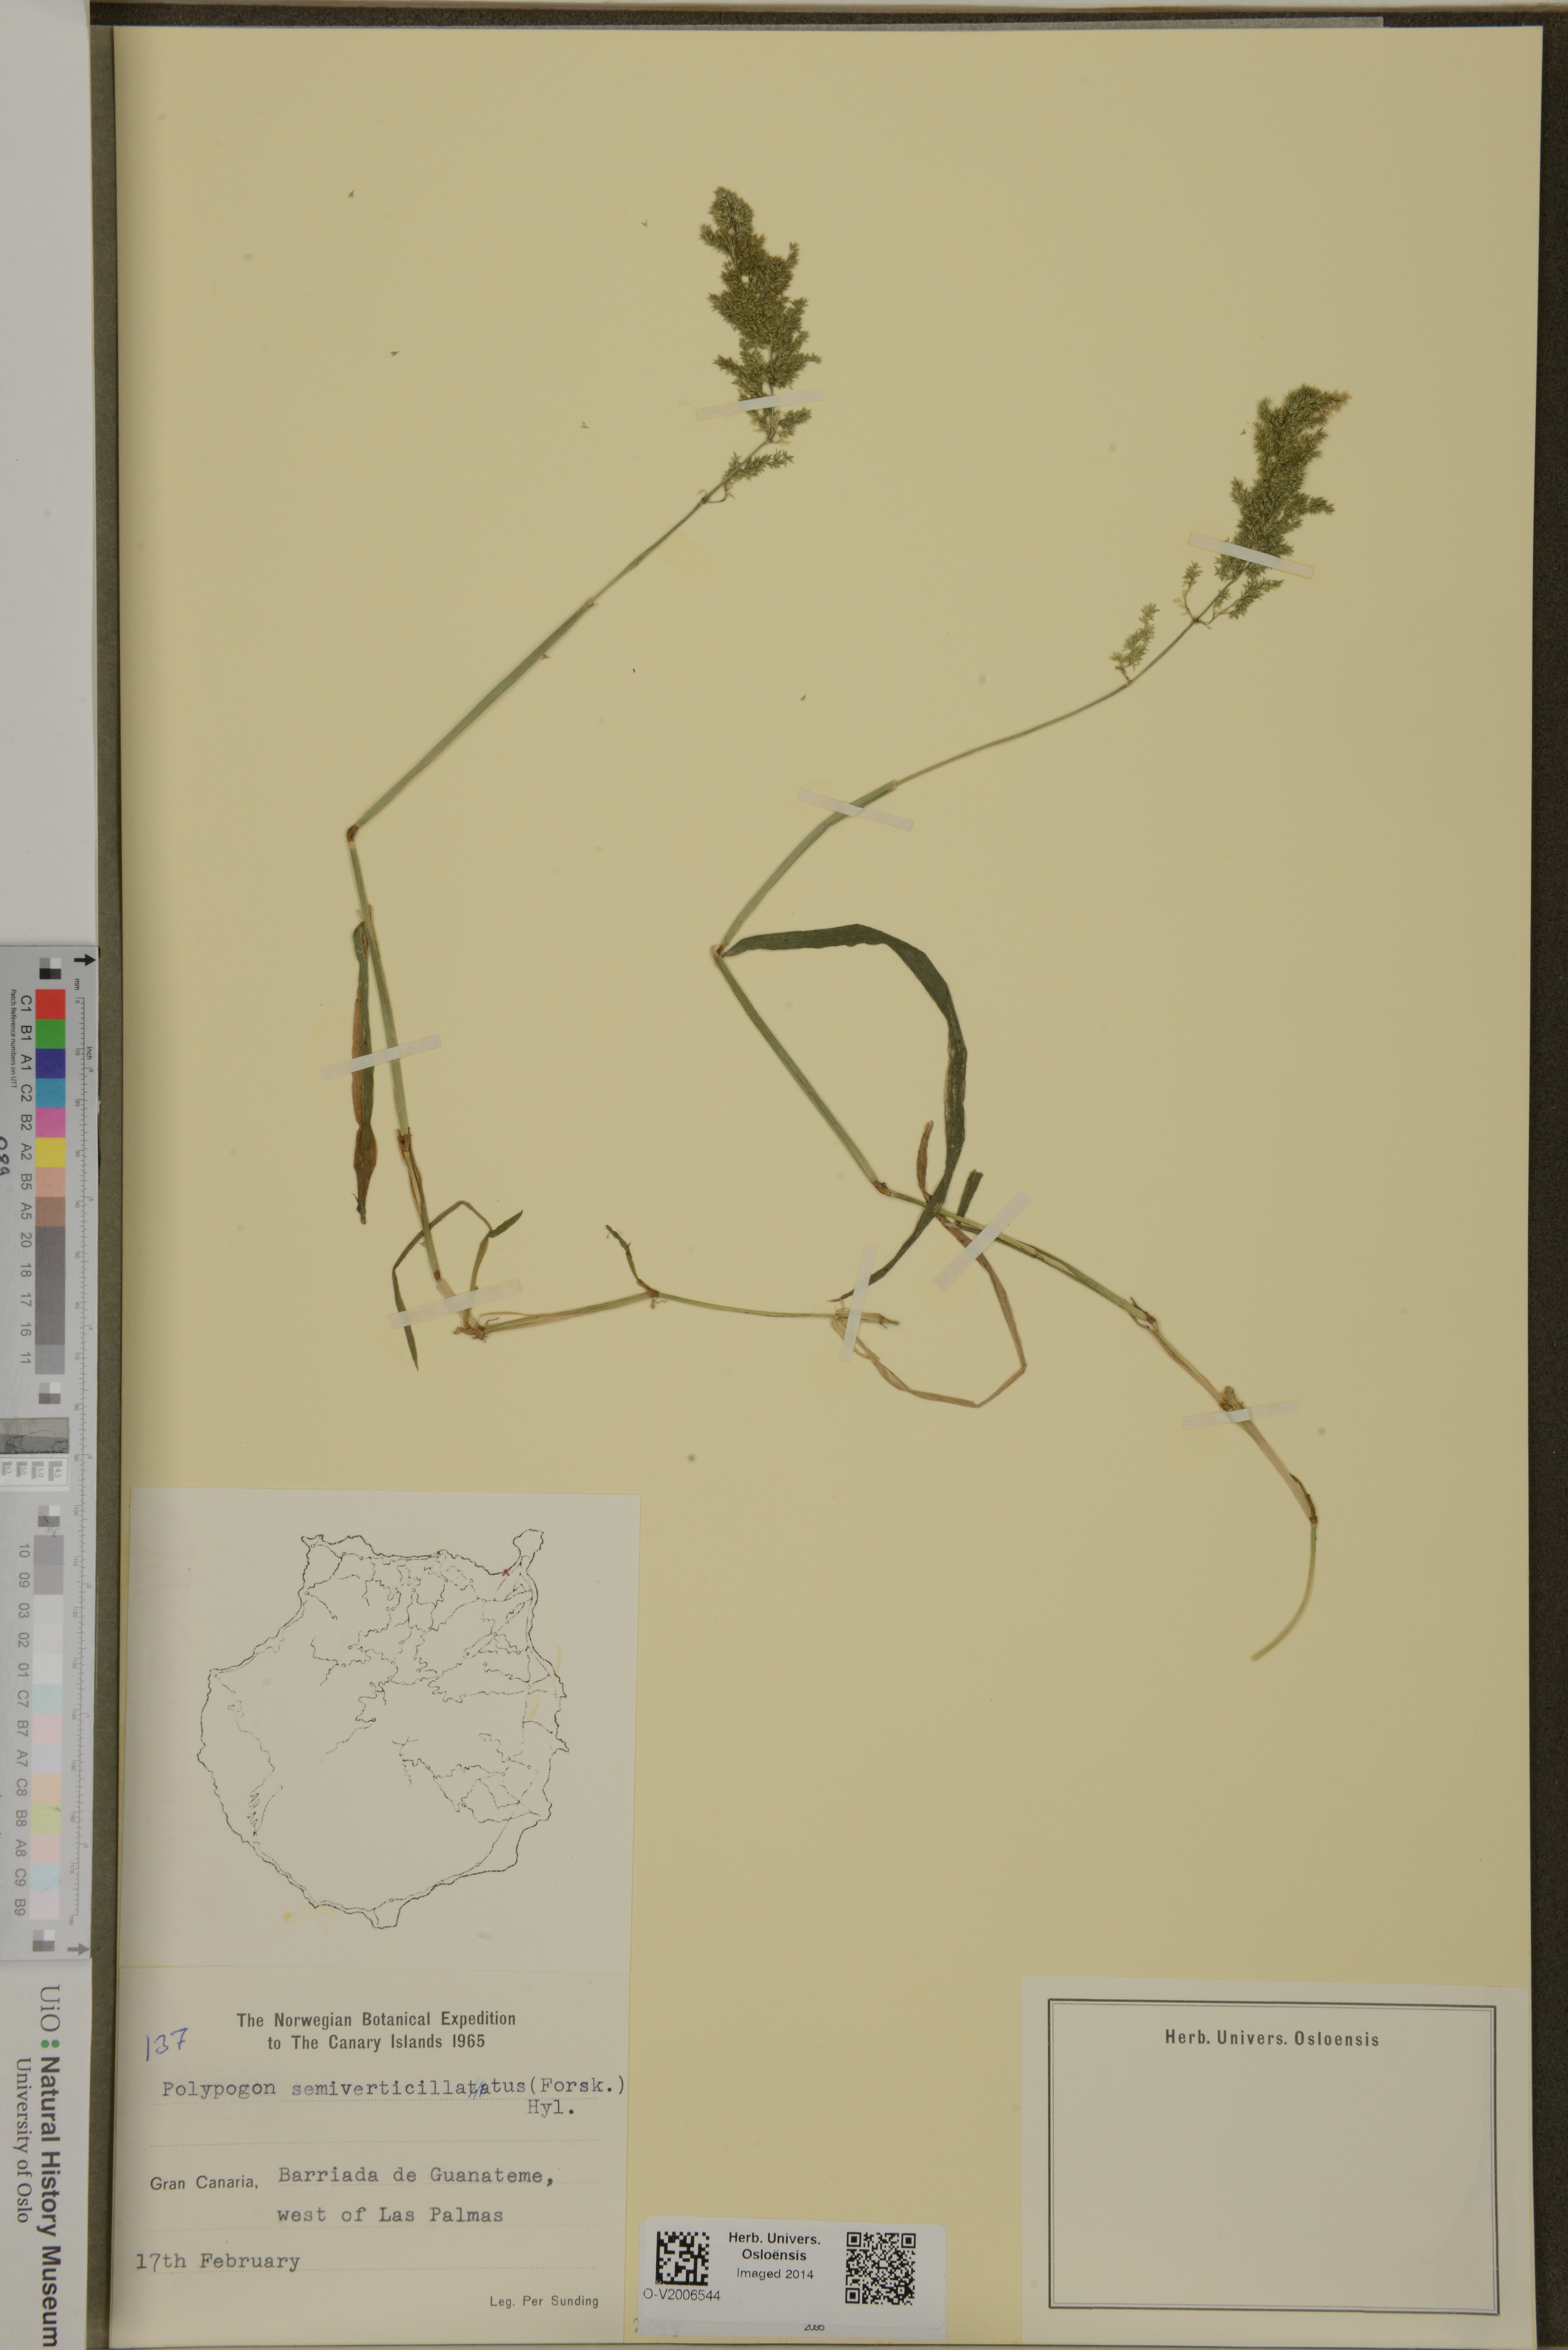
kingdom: Plantae
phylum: Tracheophyta
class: Liliopsida
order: Poales
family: Poaceae
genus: Polypogon
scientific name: Polypogon viridis
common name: Water bent
